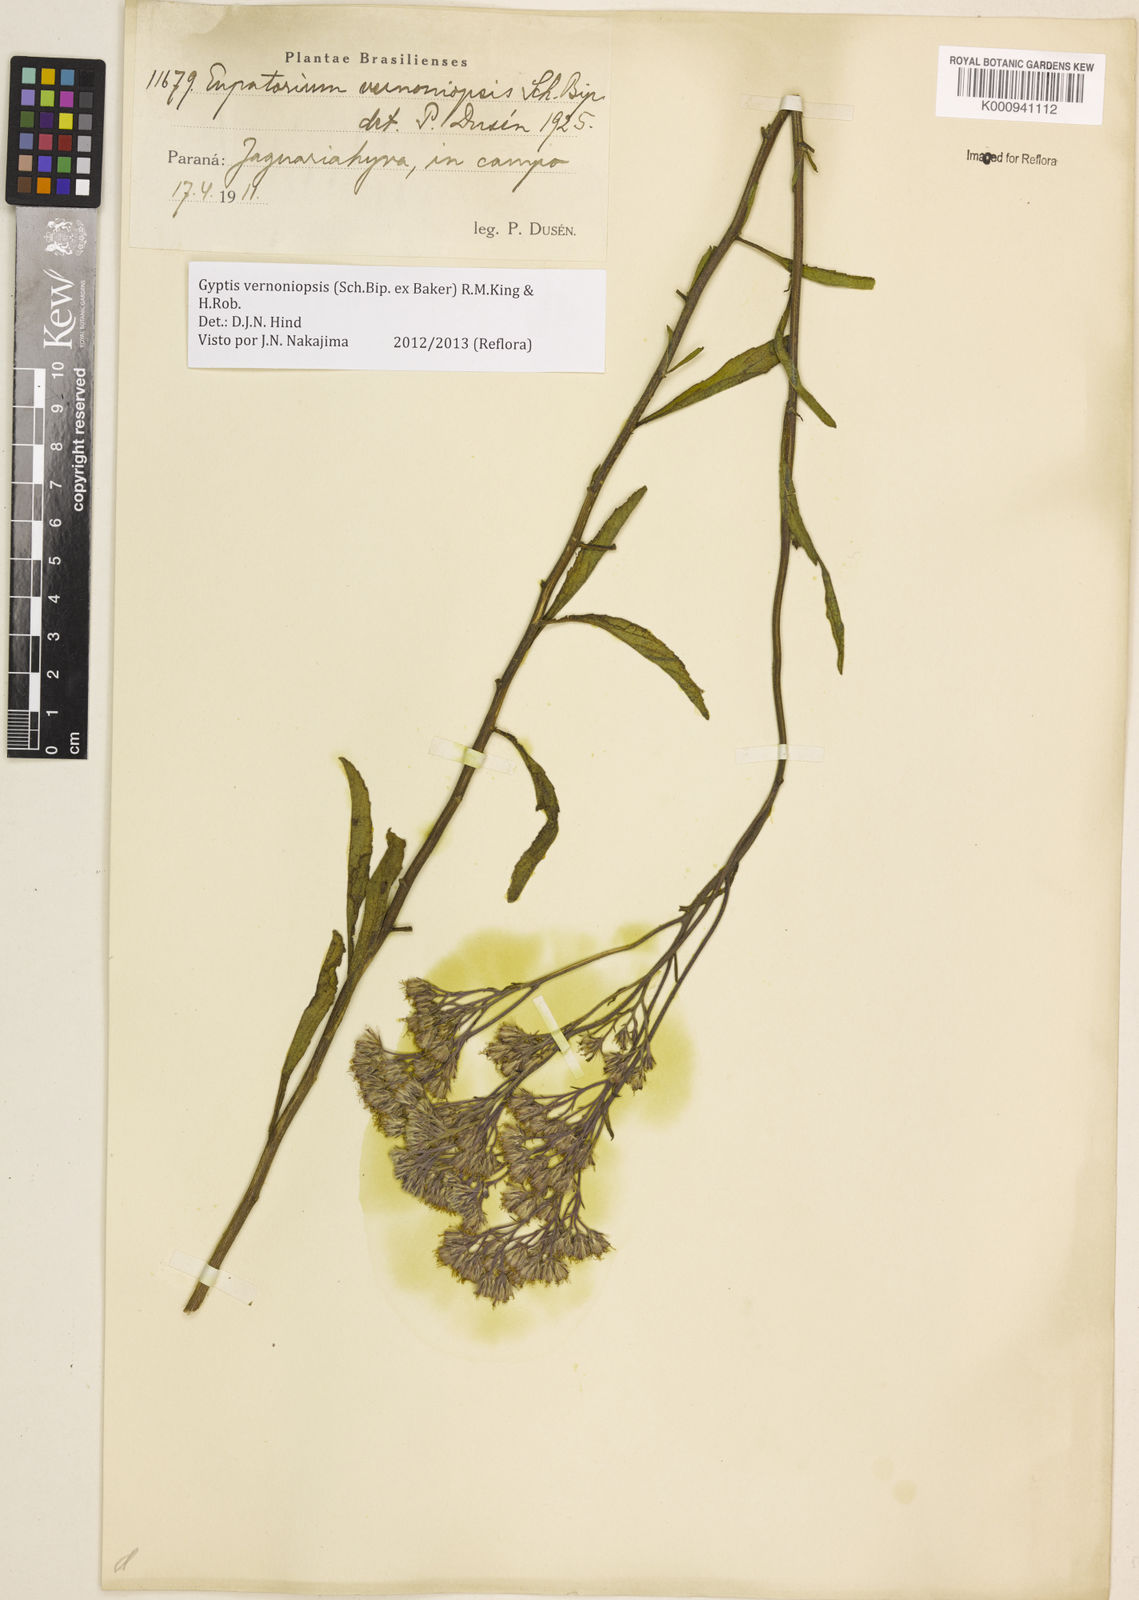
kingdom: Plantae
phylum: Tracheophyta
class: Magnoliopsida
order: Asterales
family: Asteraceae
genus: Gyptis
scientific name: Gyptis lanigera
